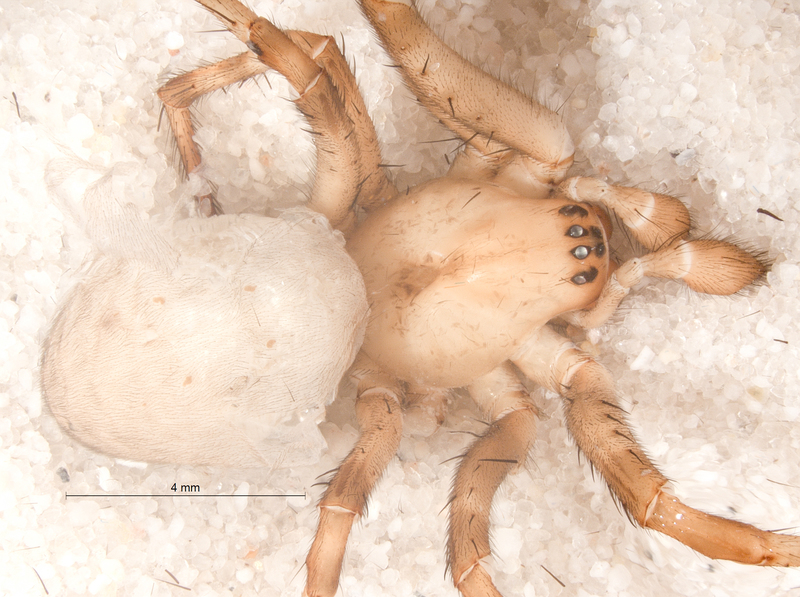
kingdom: Animalia
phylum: Arthropoda
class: Arachnida
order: Araneae
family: Tetragnathidae
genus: Meta
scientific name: Meta menardi
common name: Cave spider
